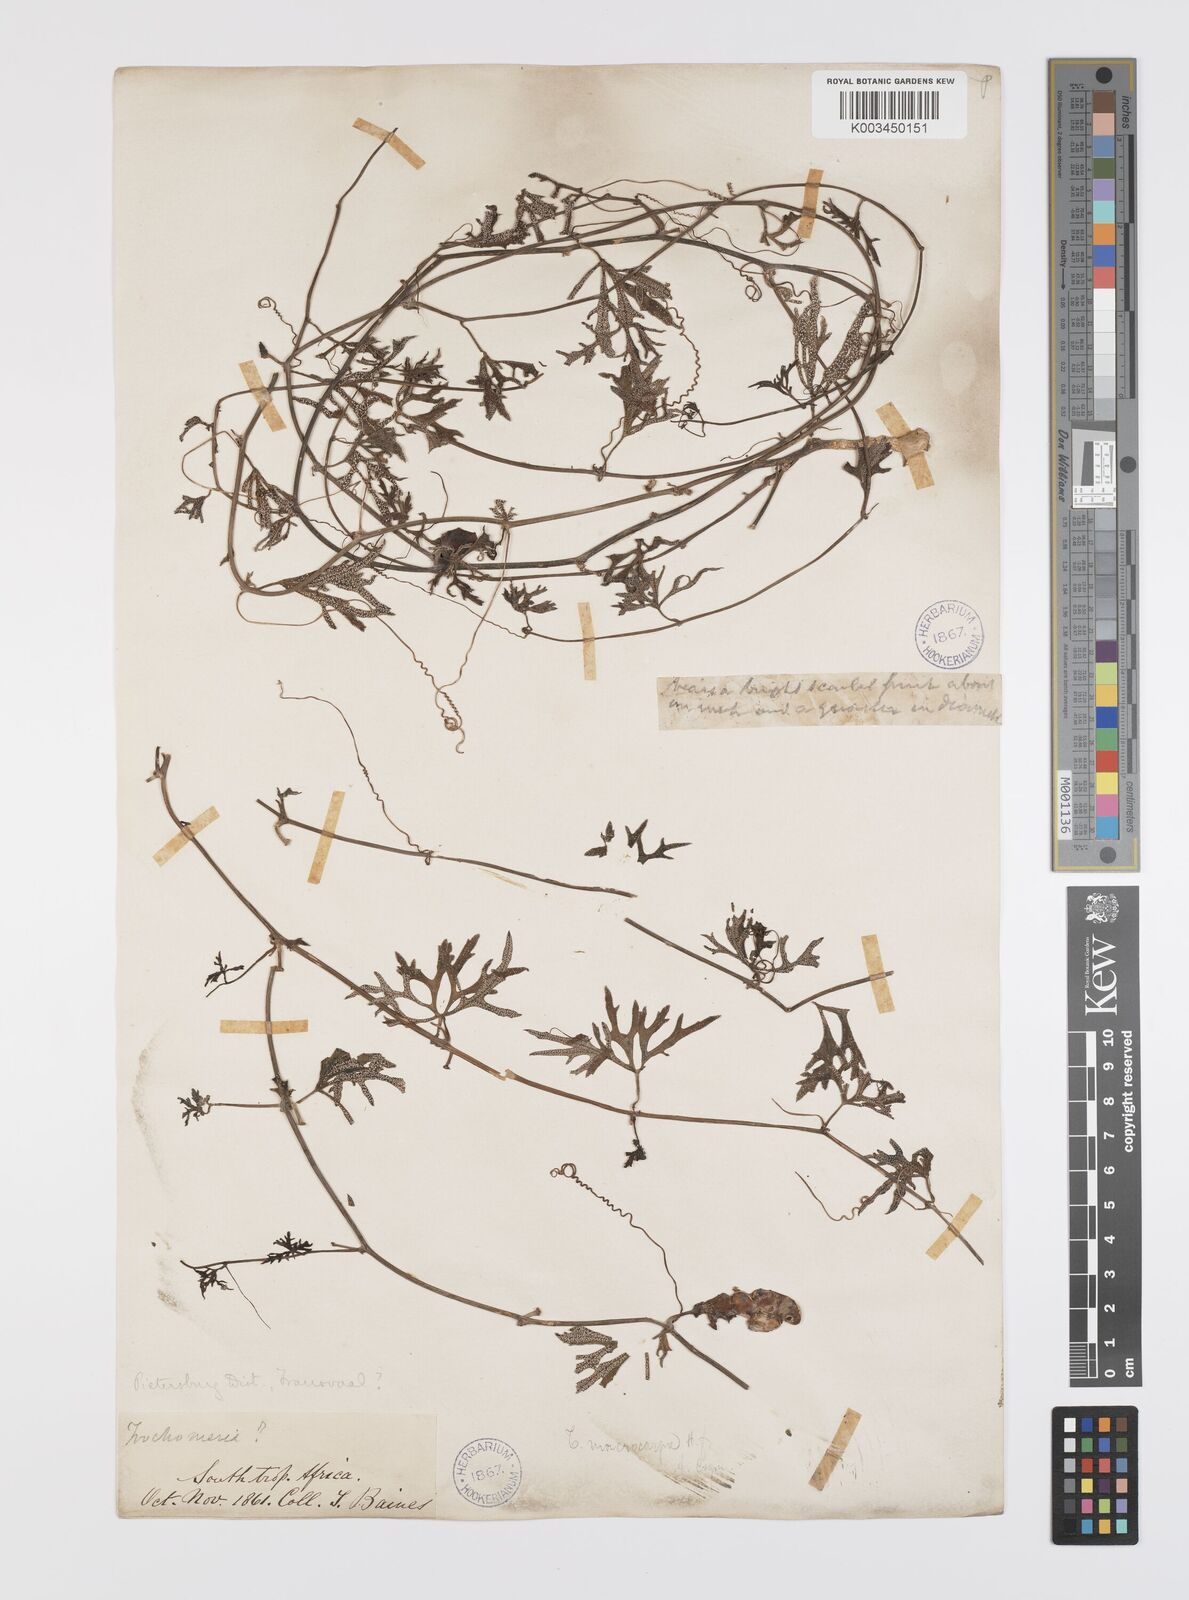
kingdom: Plantae
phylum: Tracheophyta
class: Magnoliopsida
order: Cucurbitales
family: Cucurbitaceae
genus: Trochomeria
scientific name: Trochomeria debilis
